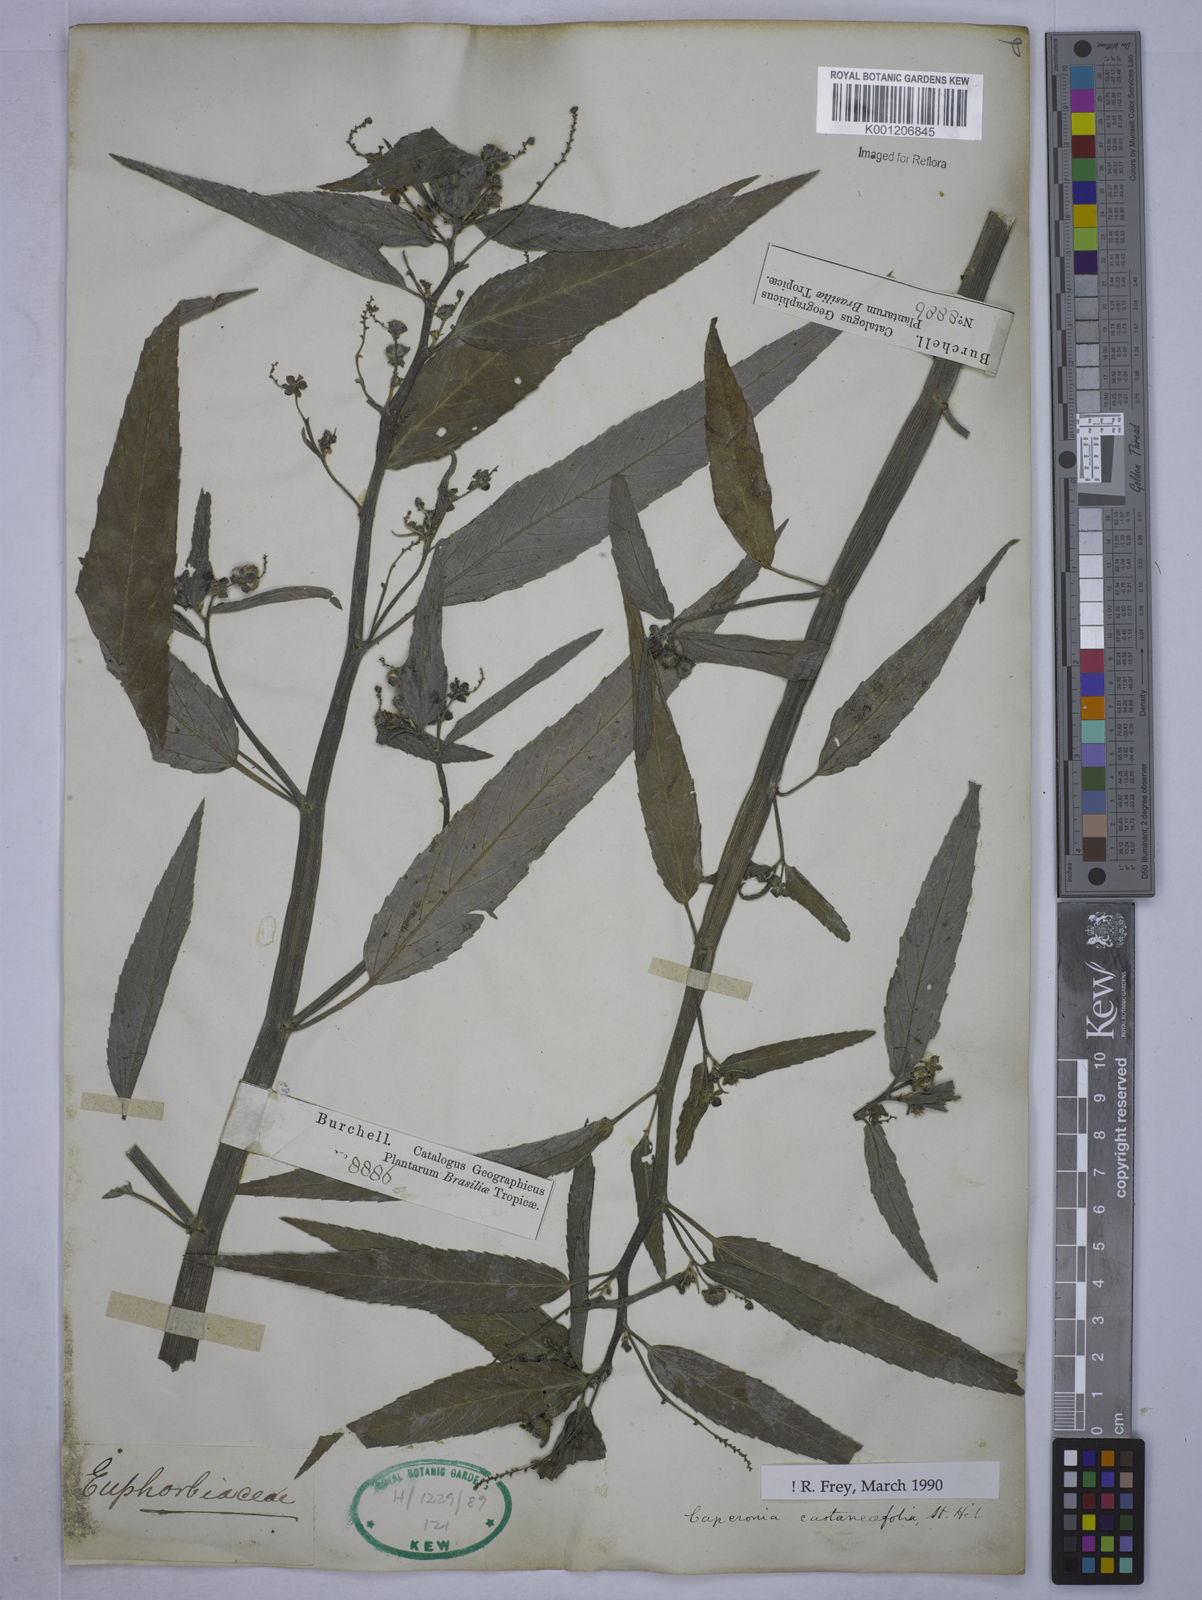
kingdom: Plantae
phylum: Tracheophyta
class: Magnoliopsida
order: Malpighiales
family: Euphorbiaceae
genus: Caperonia
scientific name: Caperonia castaneifolia
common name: Chestnutleaf false croton
